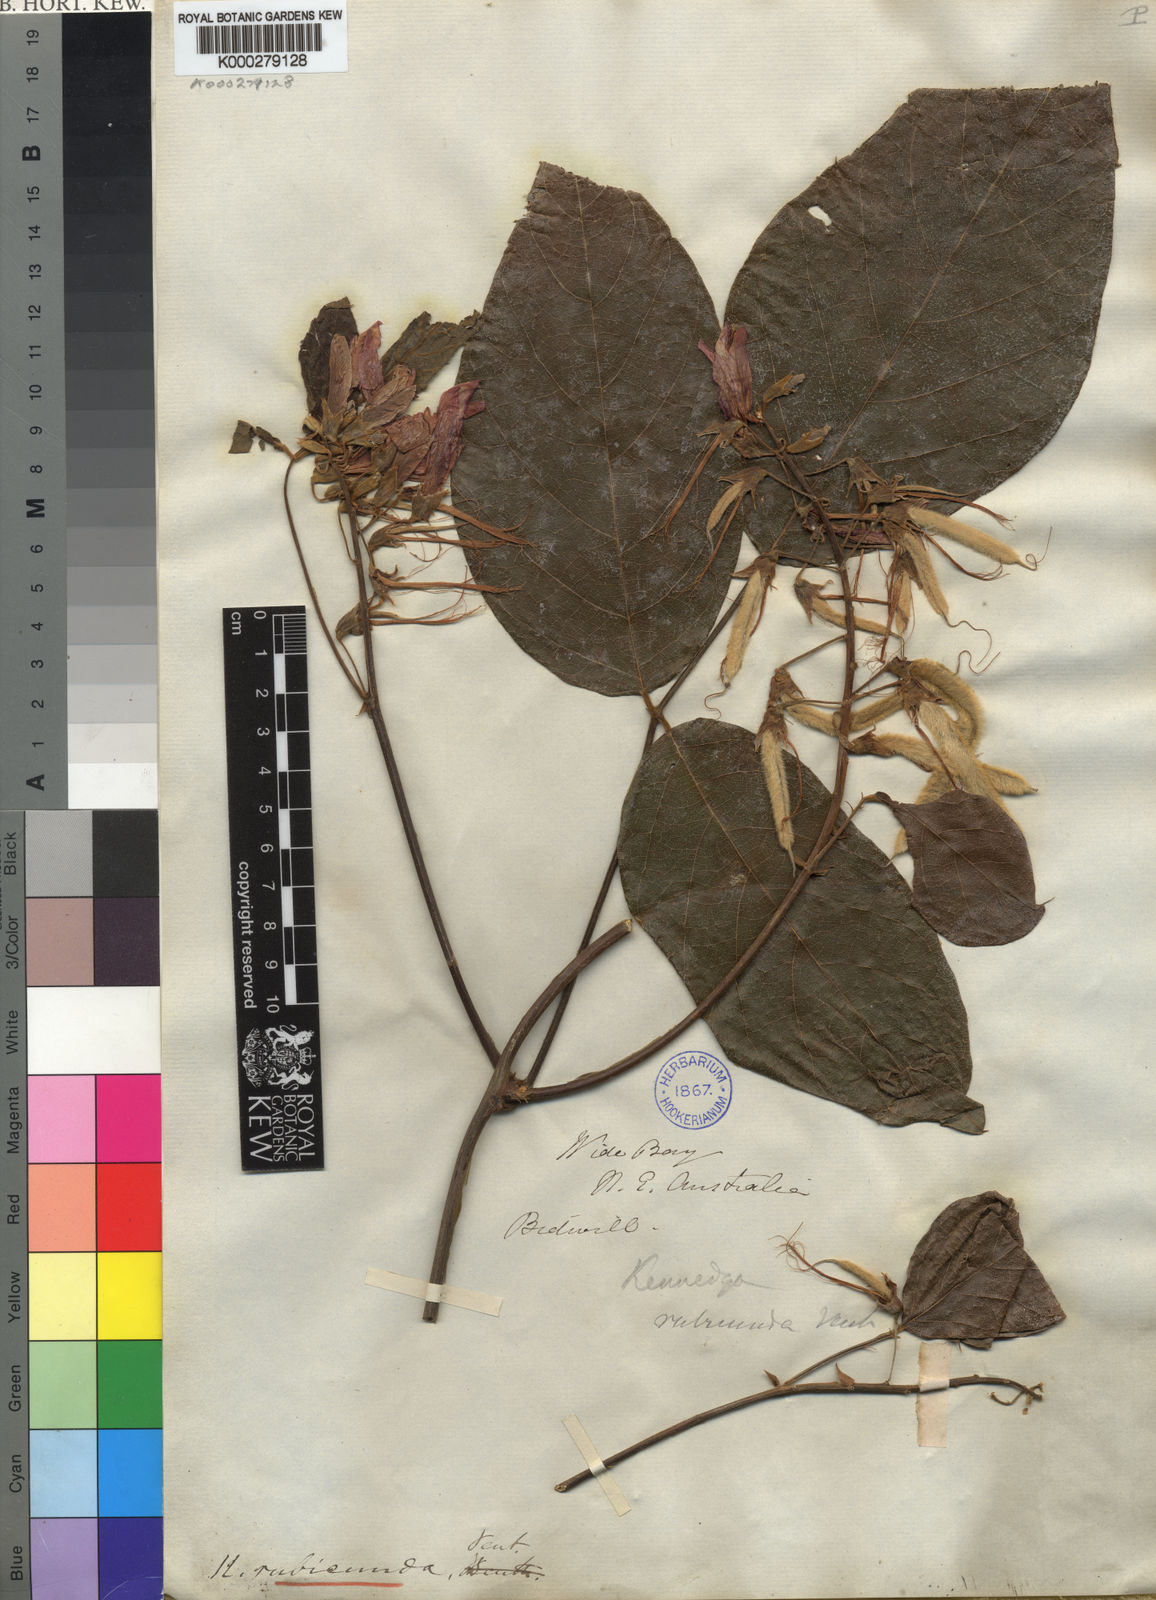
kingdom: Plantae
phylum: Tracheophyta
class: Magnoliopsida
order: Fabales
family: Fabaceae
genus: Kennedia
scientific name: Kennedia rubicunda
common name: Red kennedy-pea
